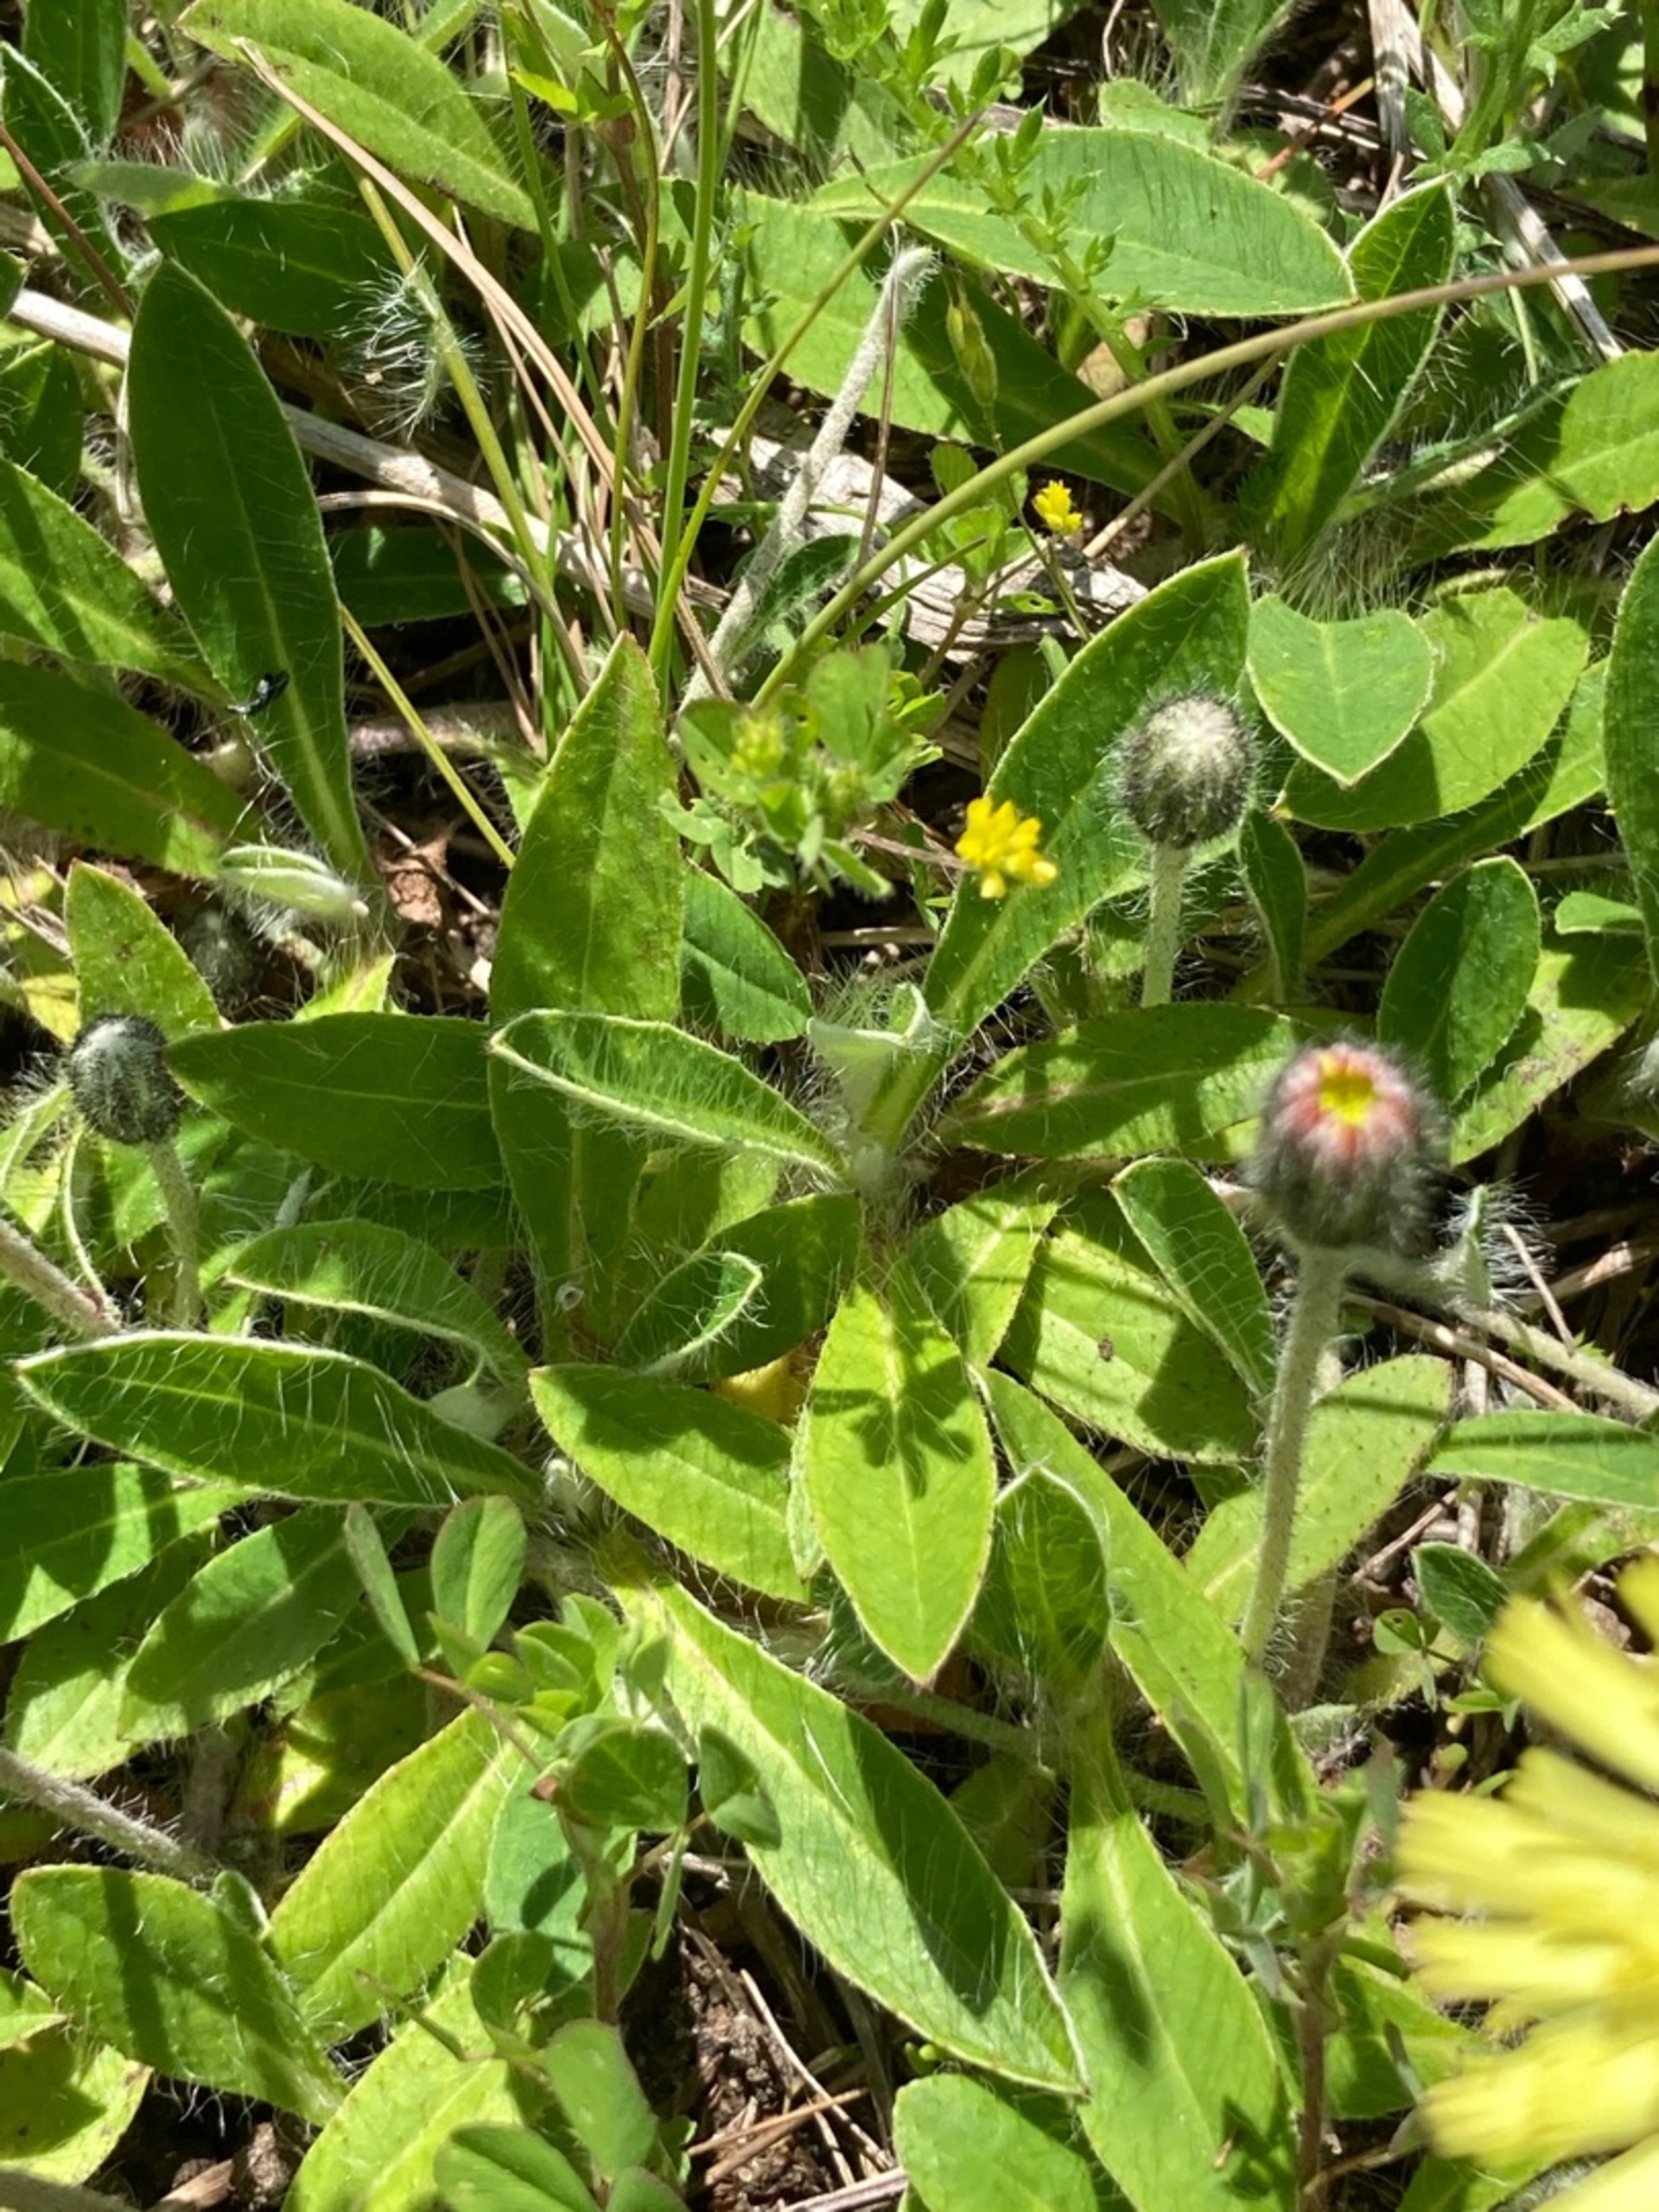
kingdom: Plantae
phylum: Tracheophyta
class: Magnoliopsida
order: Asterales
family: Asteraceae
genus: Pilosella
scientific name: Pilosella officinarum
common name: Håret høgeurt
